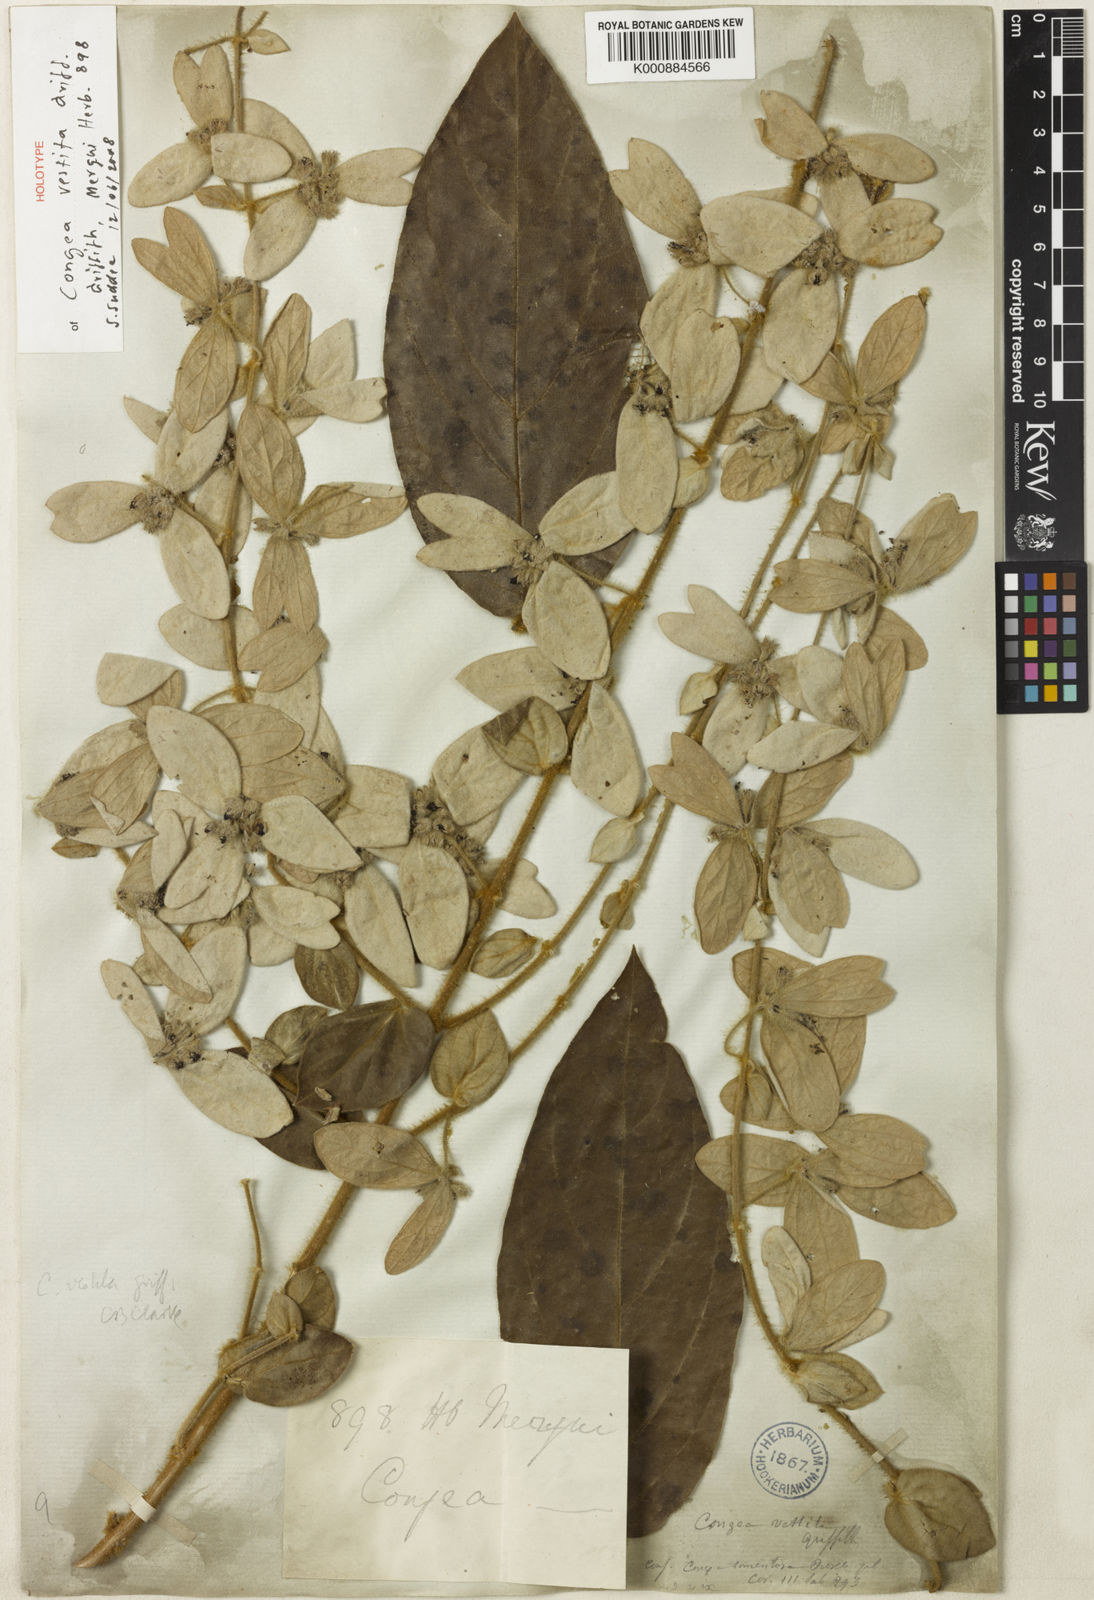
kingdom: Plantae
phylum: Tracheophyta
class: Magnoliopsida
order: Lamiales
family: Lamiaceae
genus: Congea
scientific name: Congea vestita
